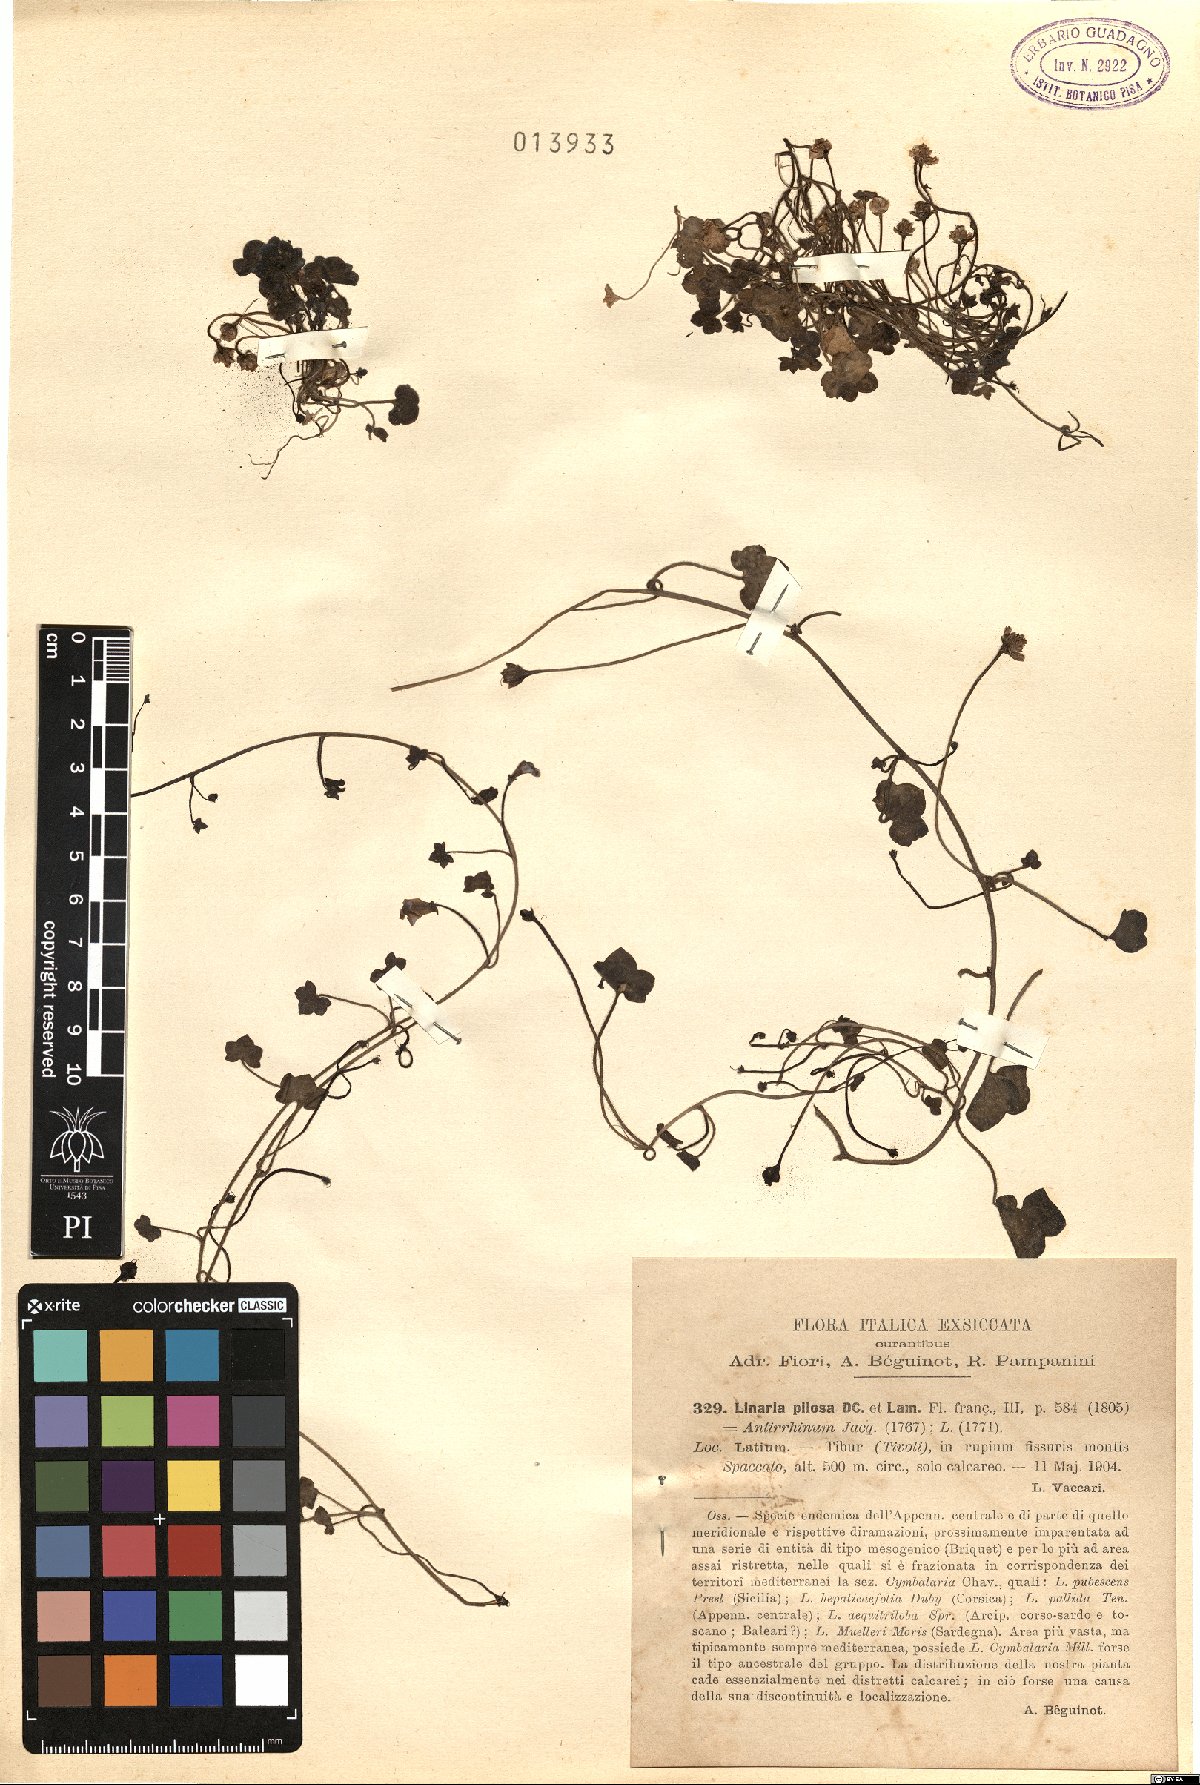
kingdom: Plantae
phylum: Tracheophyta
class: Magnoliopsida
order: Lamiales
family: Plantaginaceae
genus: Sibthorpia
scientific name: Sibthorpia europaea
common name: Cornish moneywort
